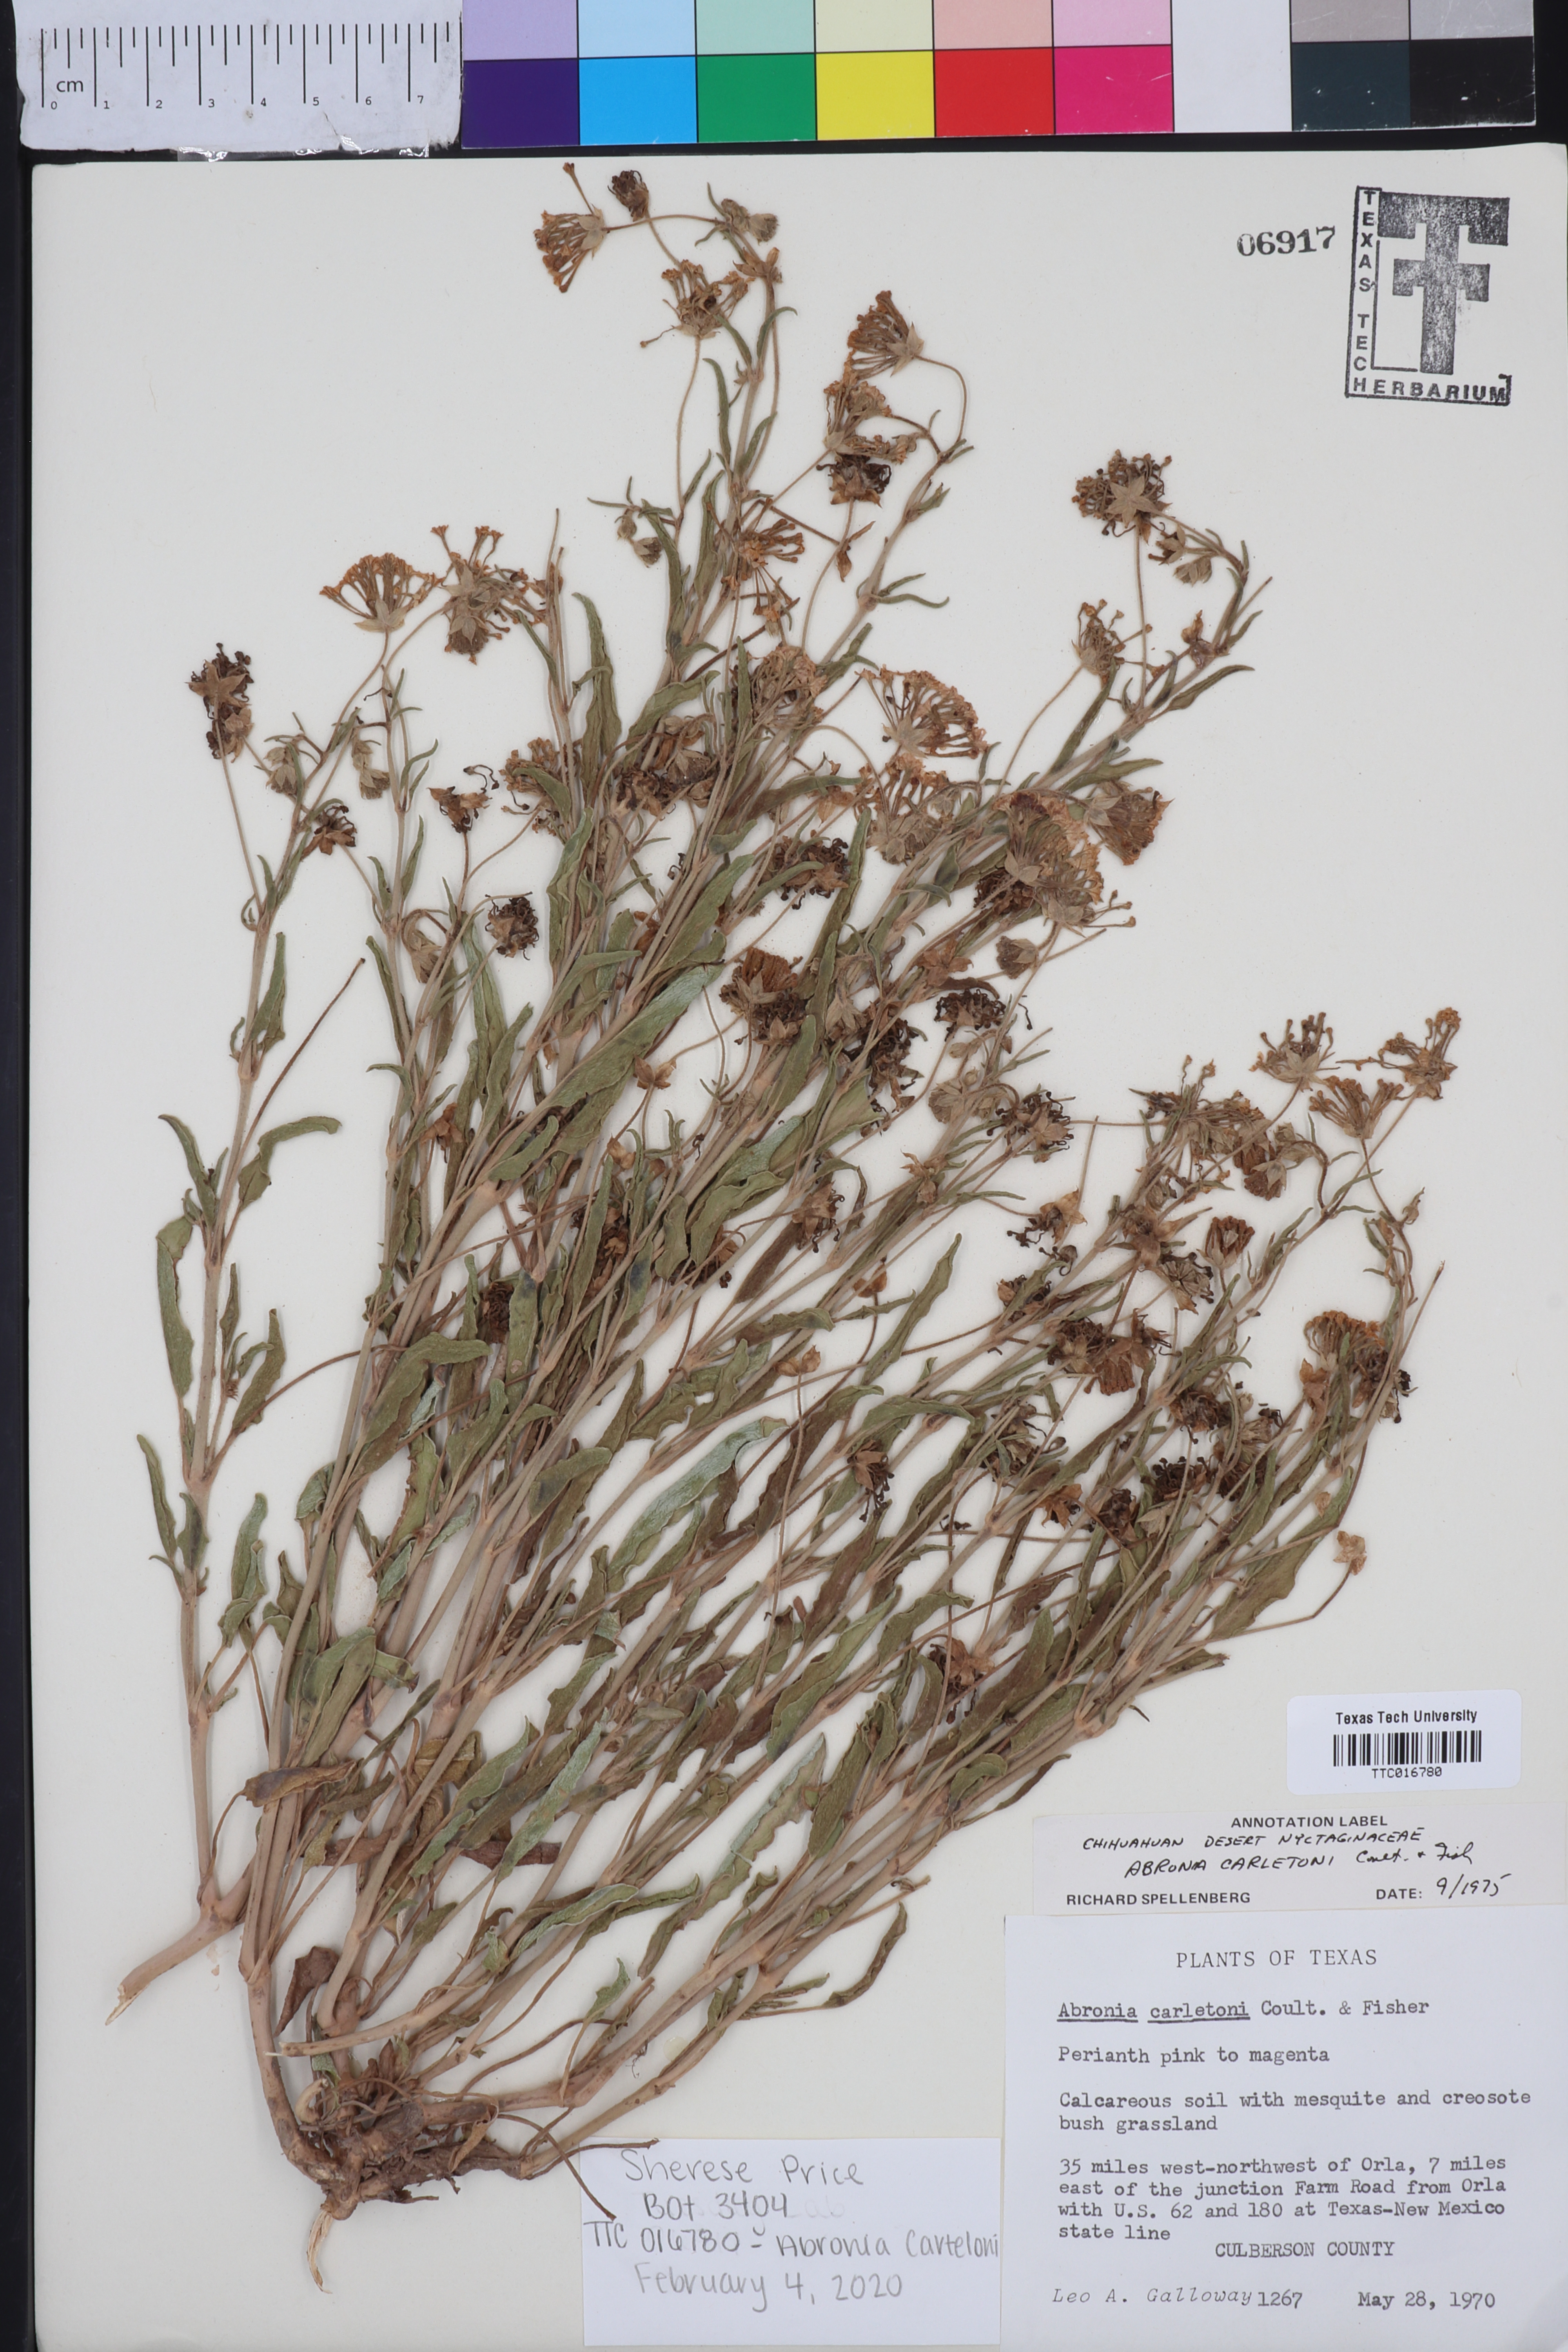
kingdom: Plantae
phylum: Tracheophyta
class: Magnoliopsida
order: Caryophyllales
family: Nyctaginaceae
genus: Abronia
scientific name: Abronia carletonii
